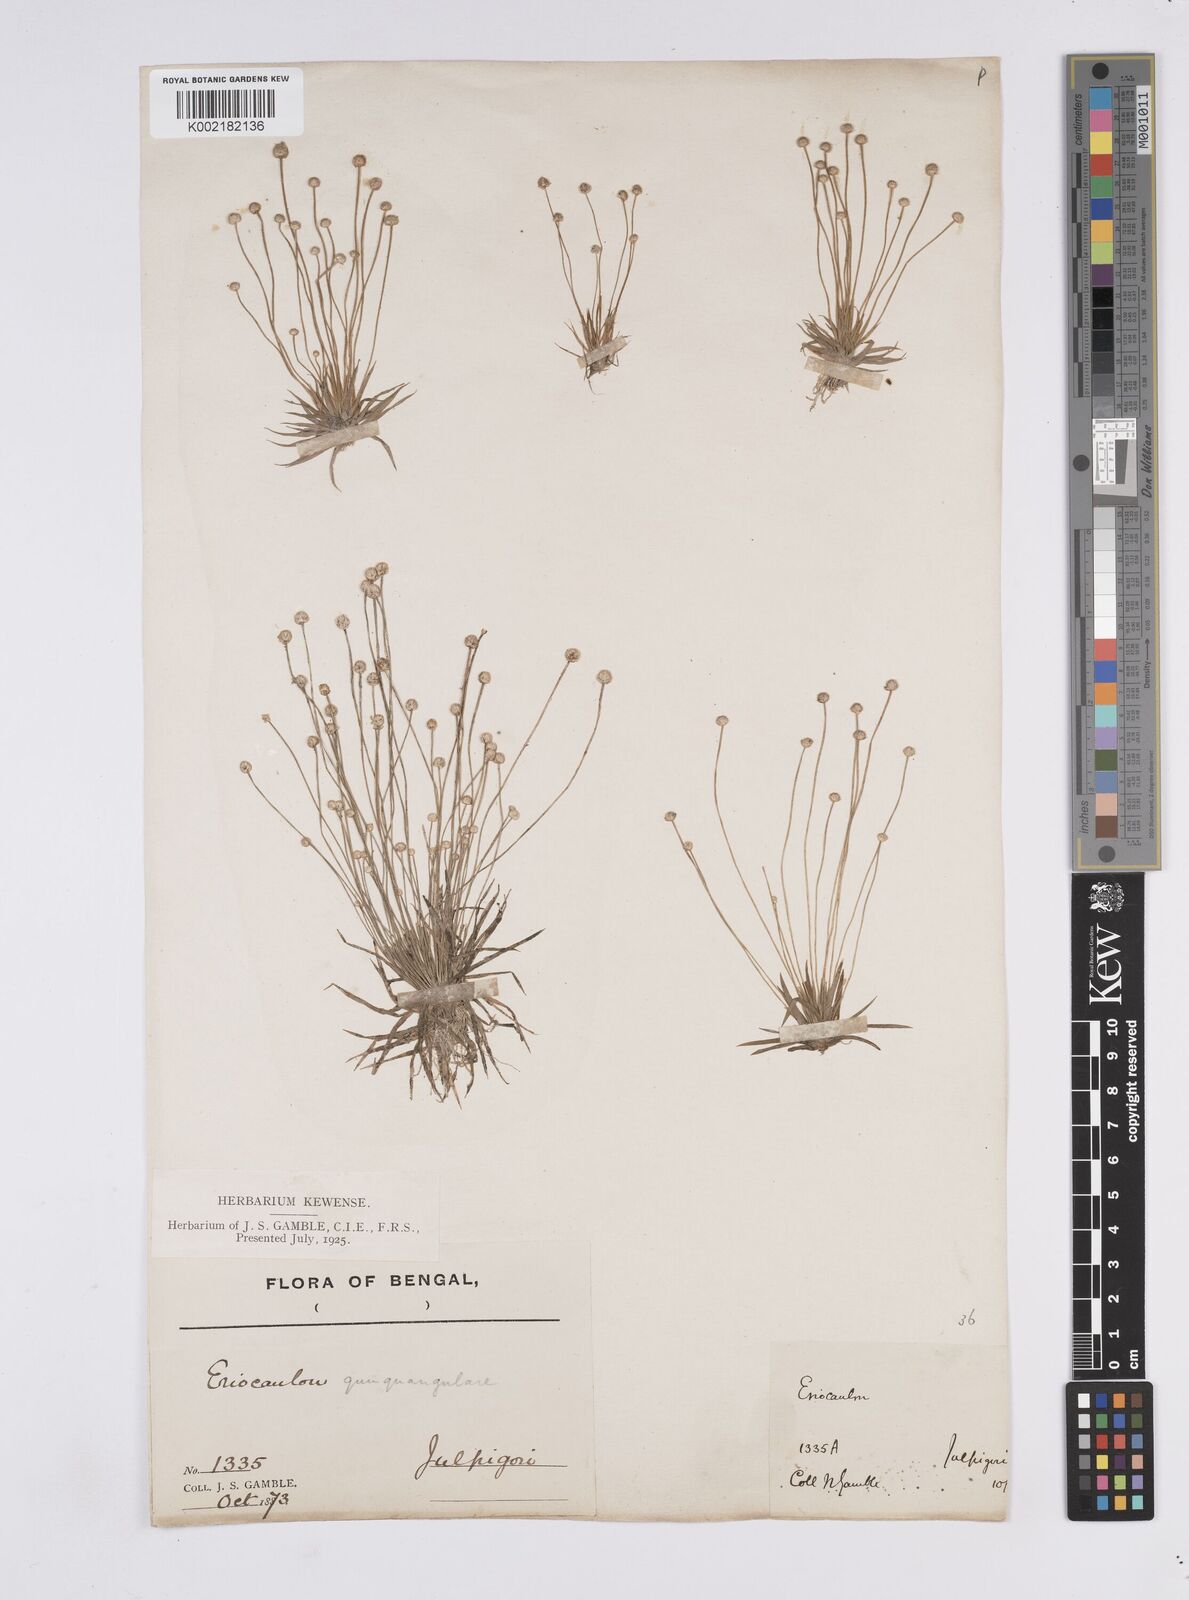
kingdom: Plantae
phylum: Tracheophyta
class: Liliopsida
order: Poales
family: Eriocaulaceae
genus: Eriocaulon
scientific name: Eriocaulon
